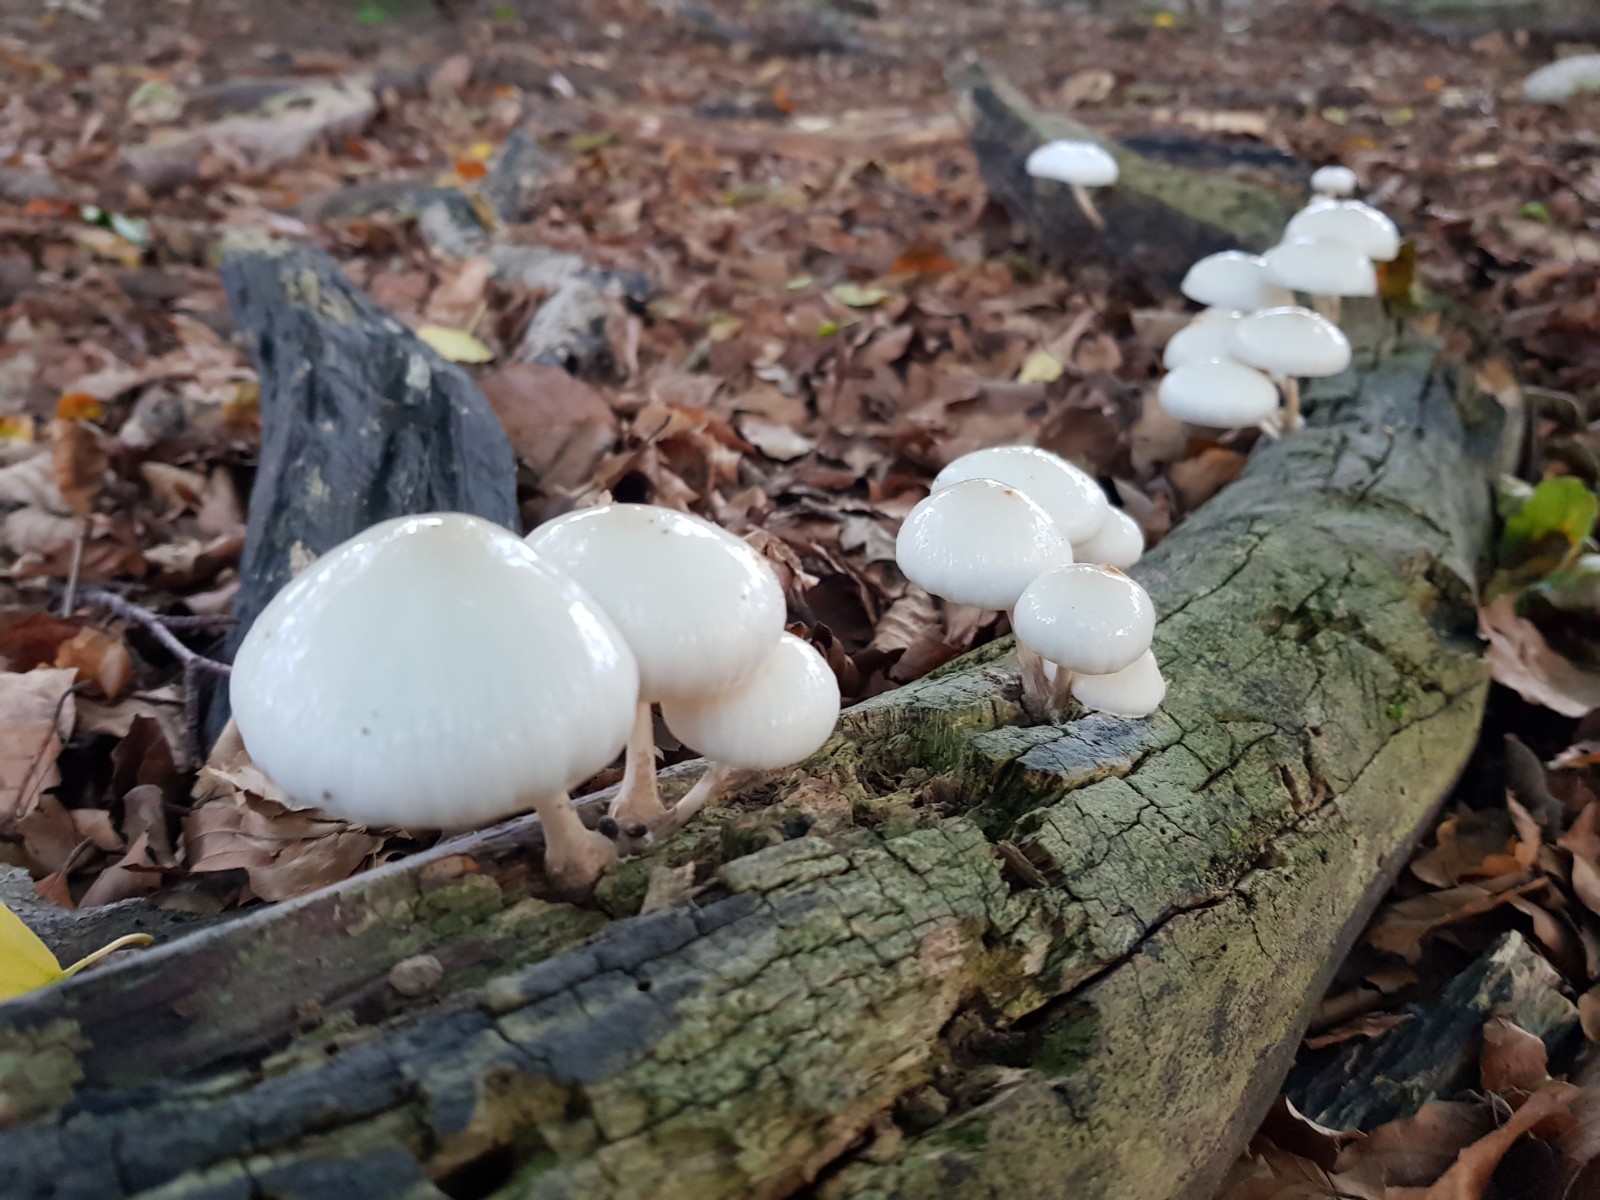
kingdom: Fungi
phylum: Basidiomycota
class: Agaricomycetes
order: Agaricales
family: Physalacriaceae
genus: Mucidula
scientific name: Mucidula mucida
